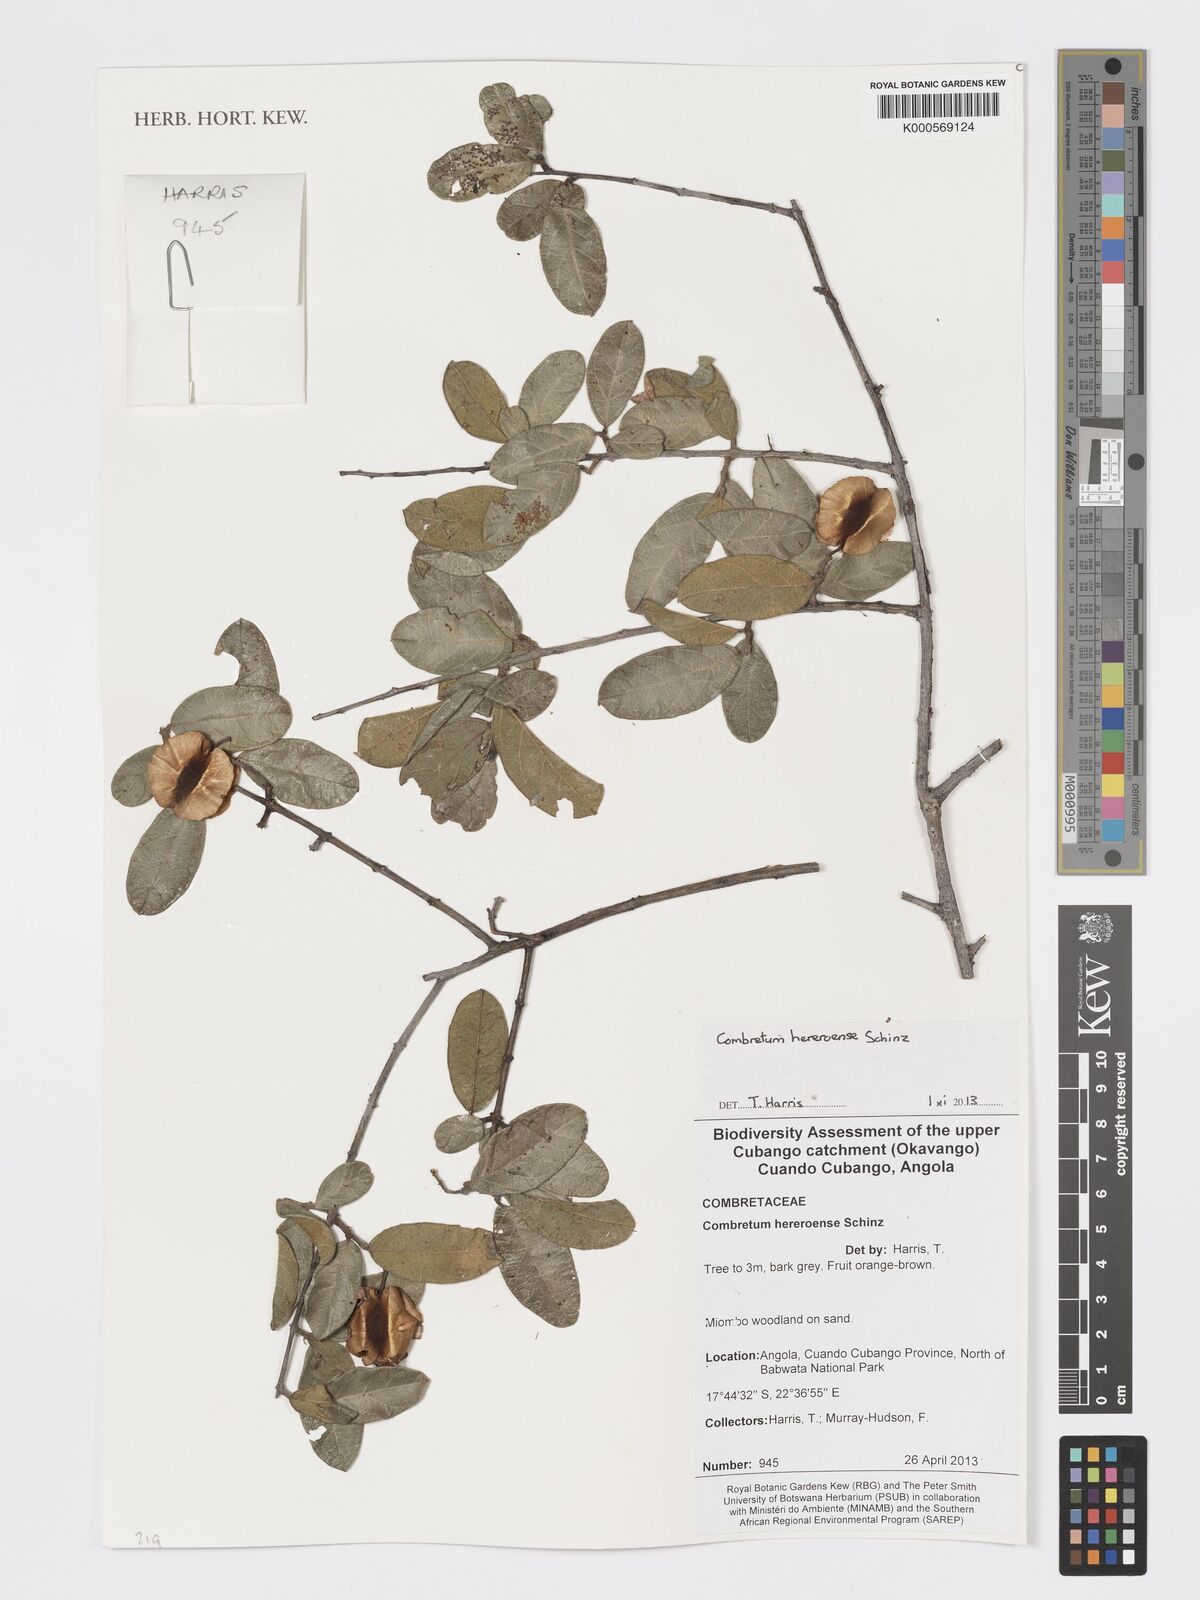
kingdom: Plantae
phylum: Tracheophyta
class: Magnoliopsida
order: Myrtales
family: Combretaceae
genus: Combretum
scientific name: Combretum hereroense
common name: Russet bushwillow
